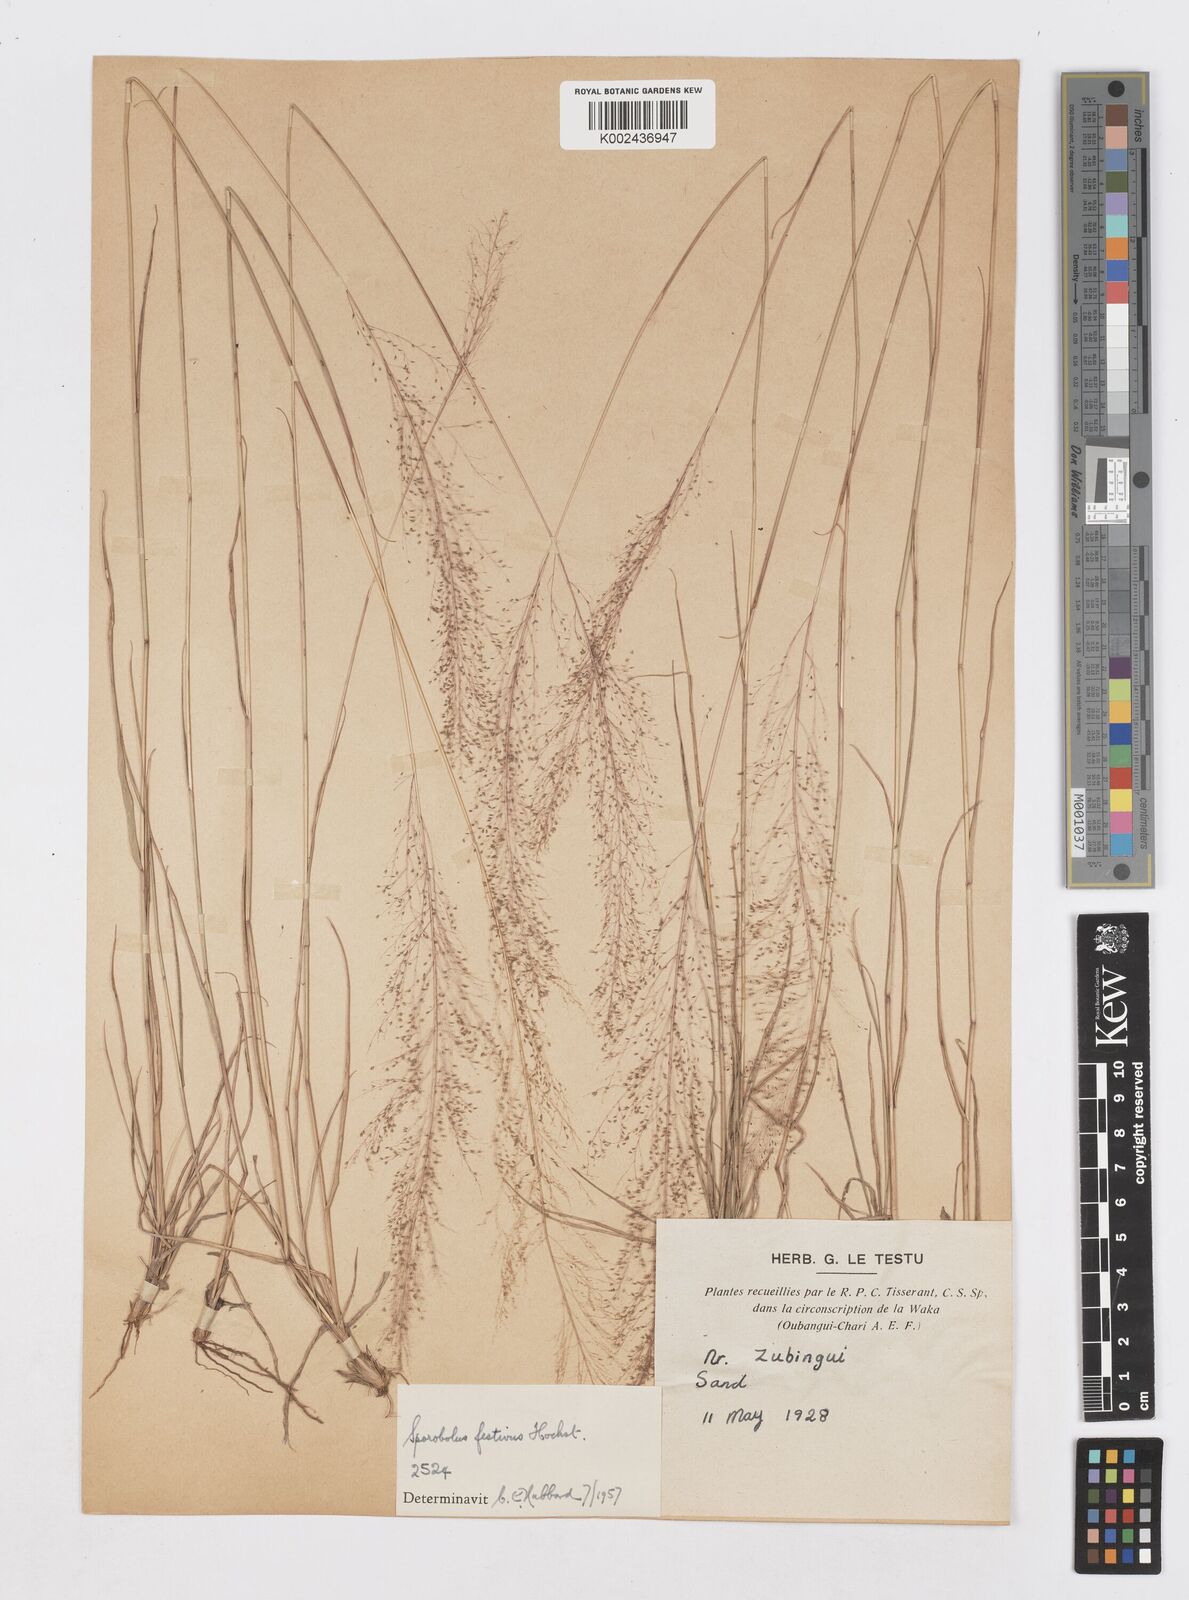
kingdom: Plantae
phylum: Tracheophyta
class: Liliopsida
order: Poales
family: Poaceae
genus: Sporobolus
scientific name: Sporobolus festivus
